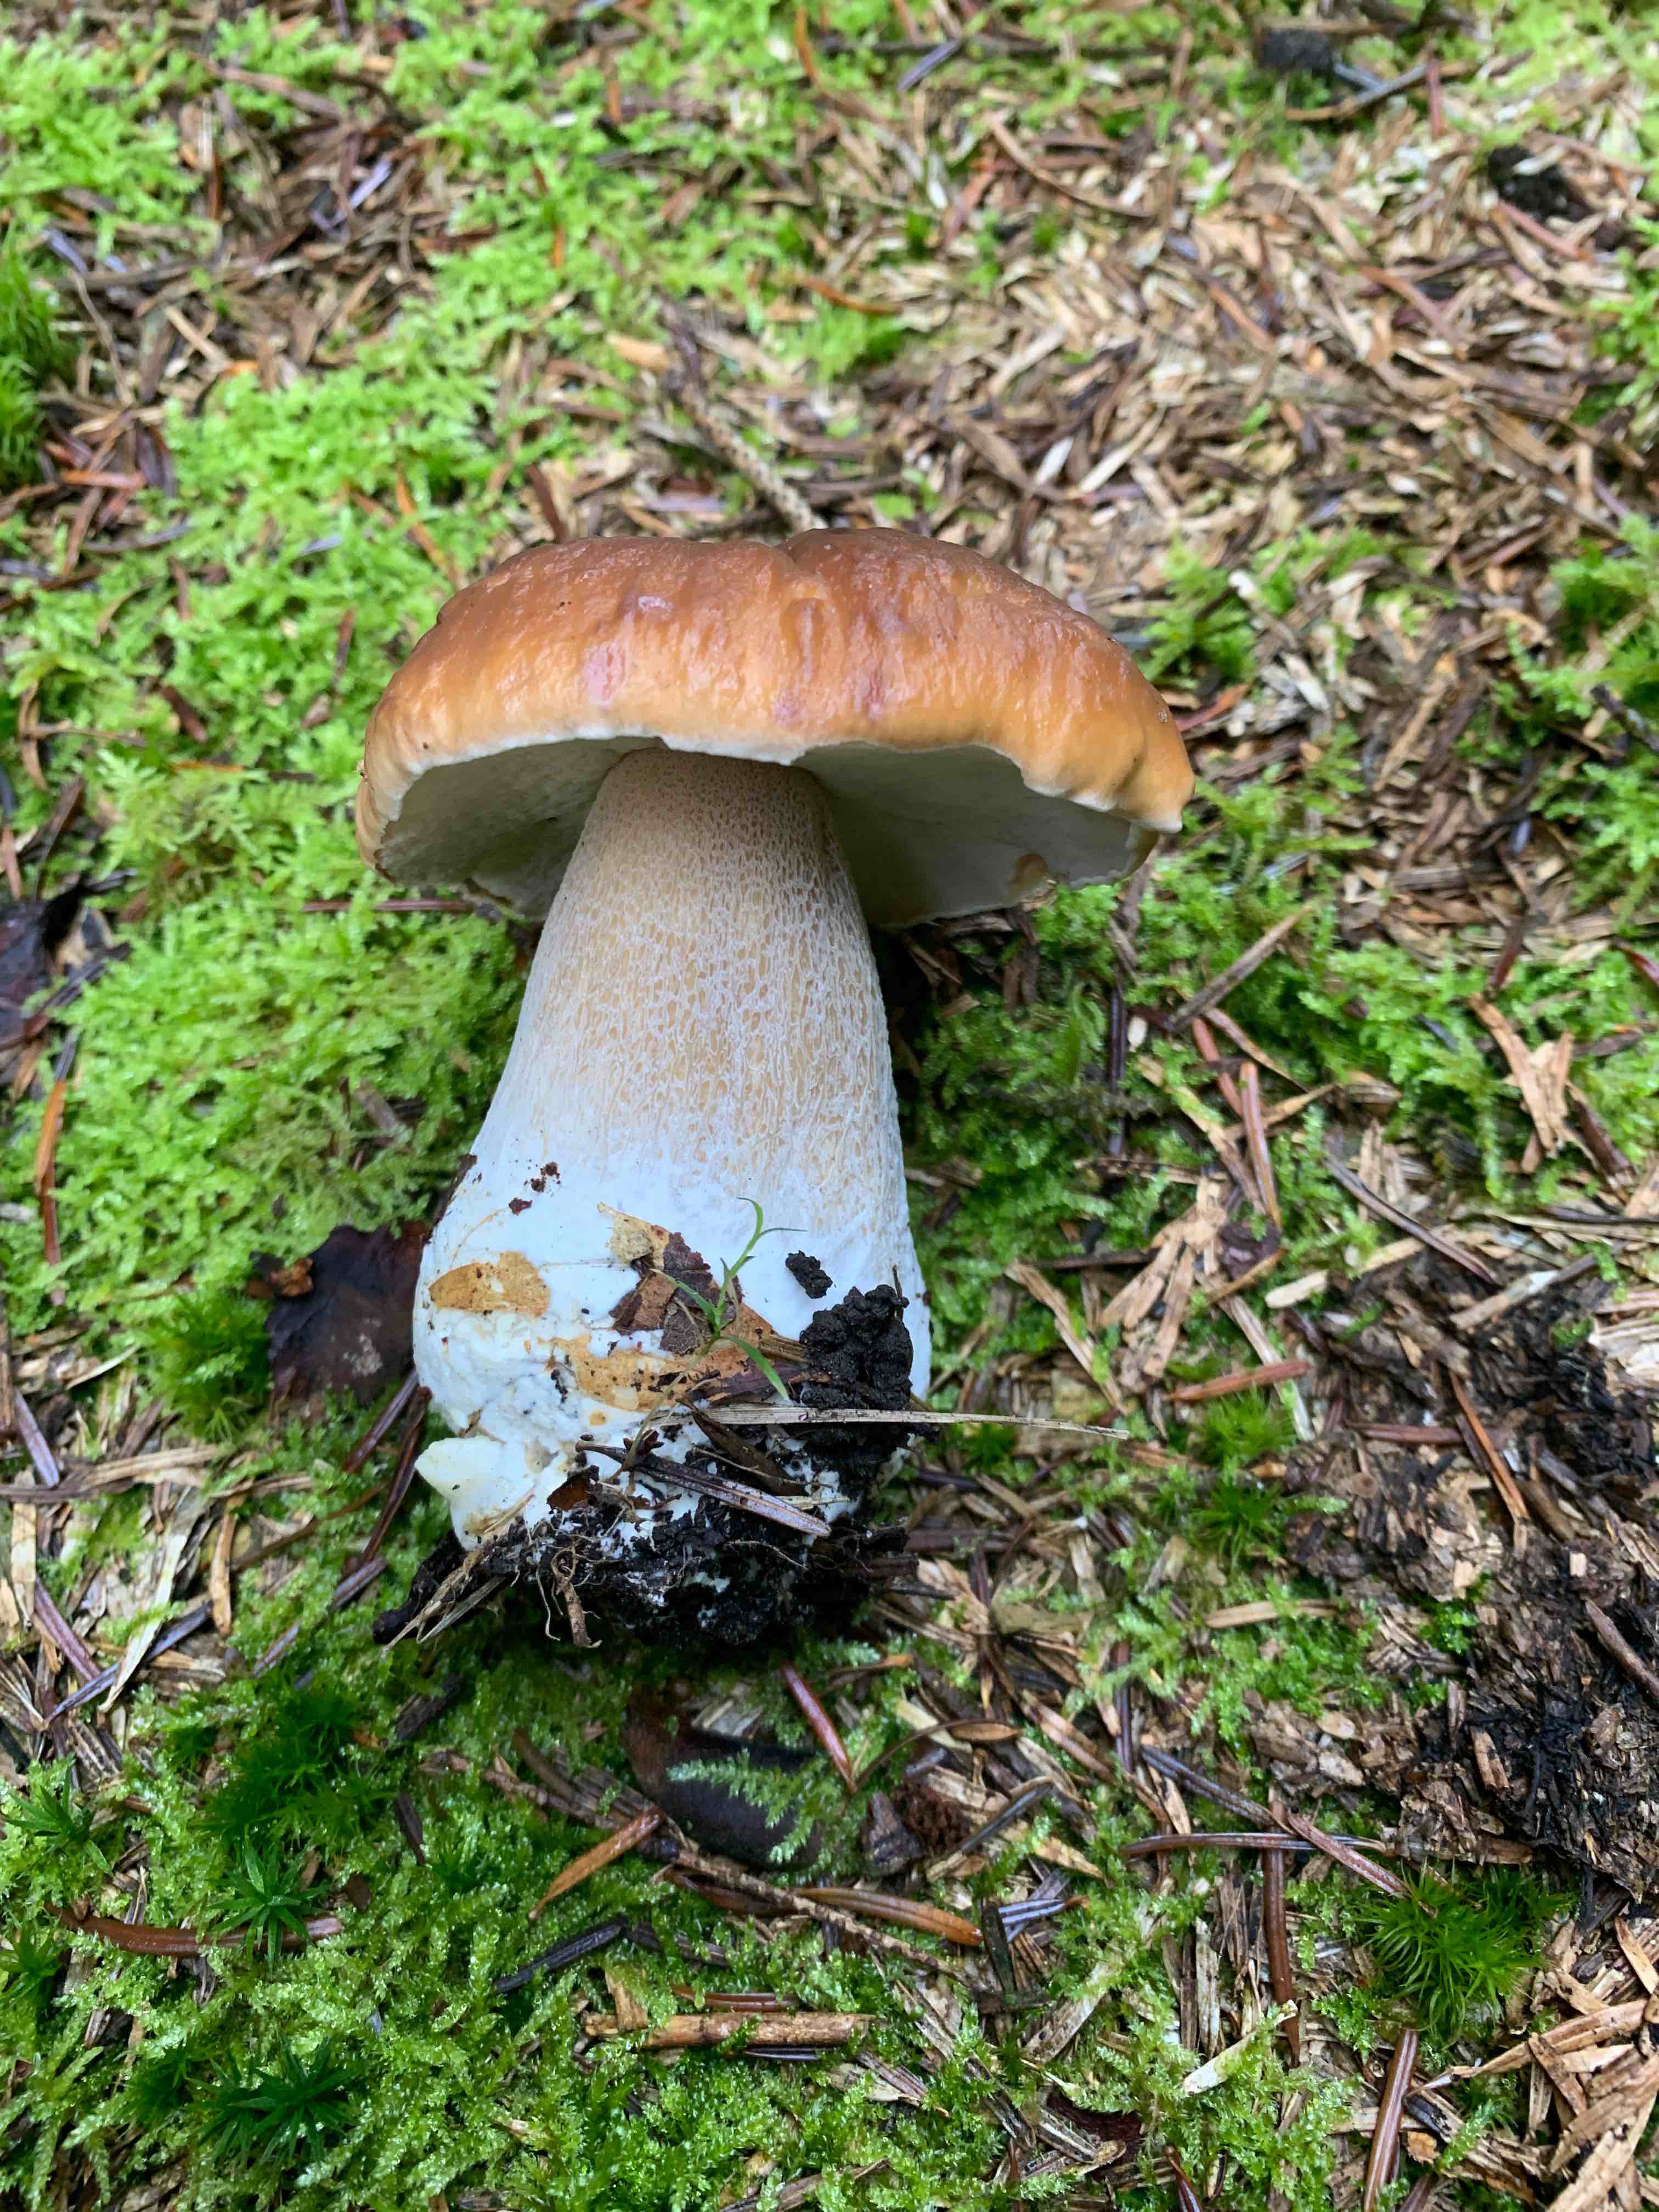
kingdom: Fungi
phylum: Basidiomycota
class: Agaricomycetes
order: Boletales
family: Boletaceae
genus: Boletus
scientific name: Boletus edulis
